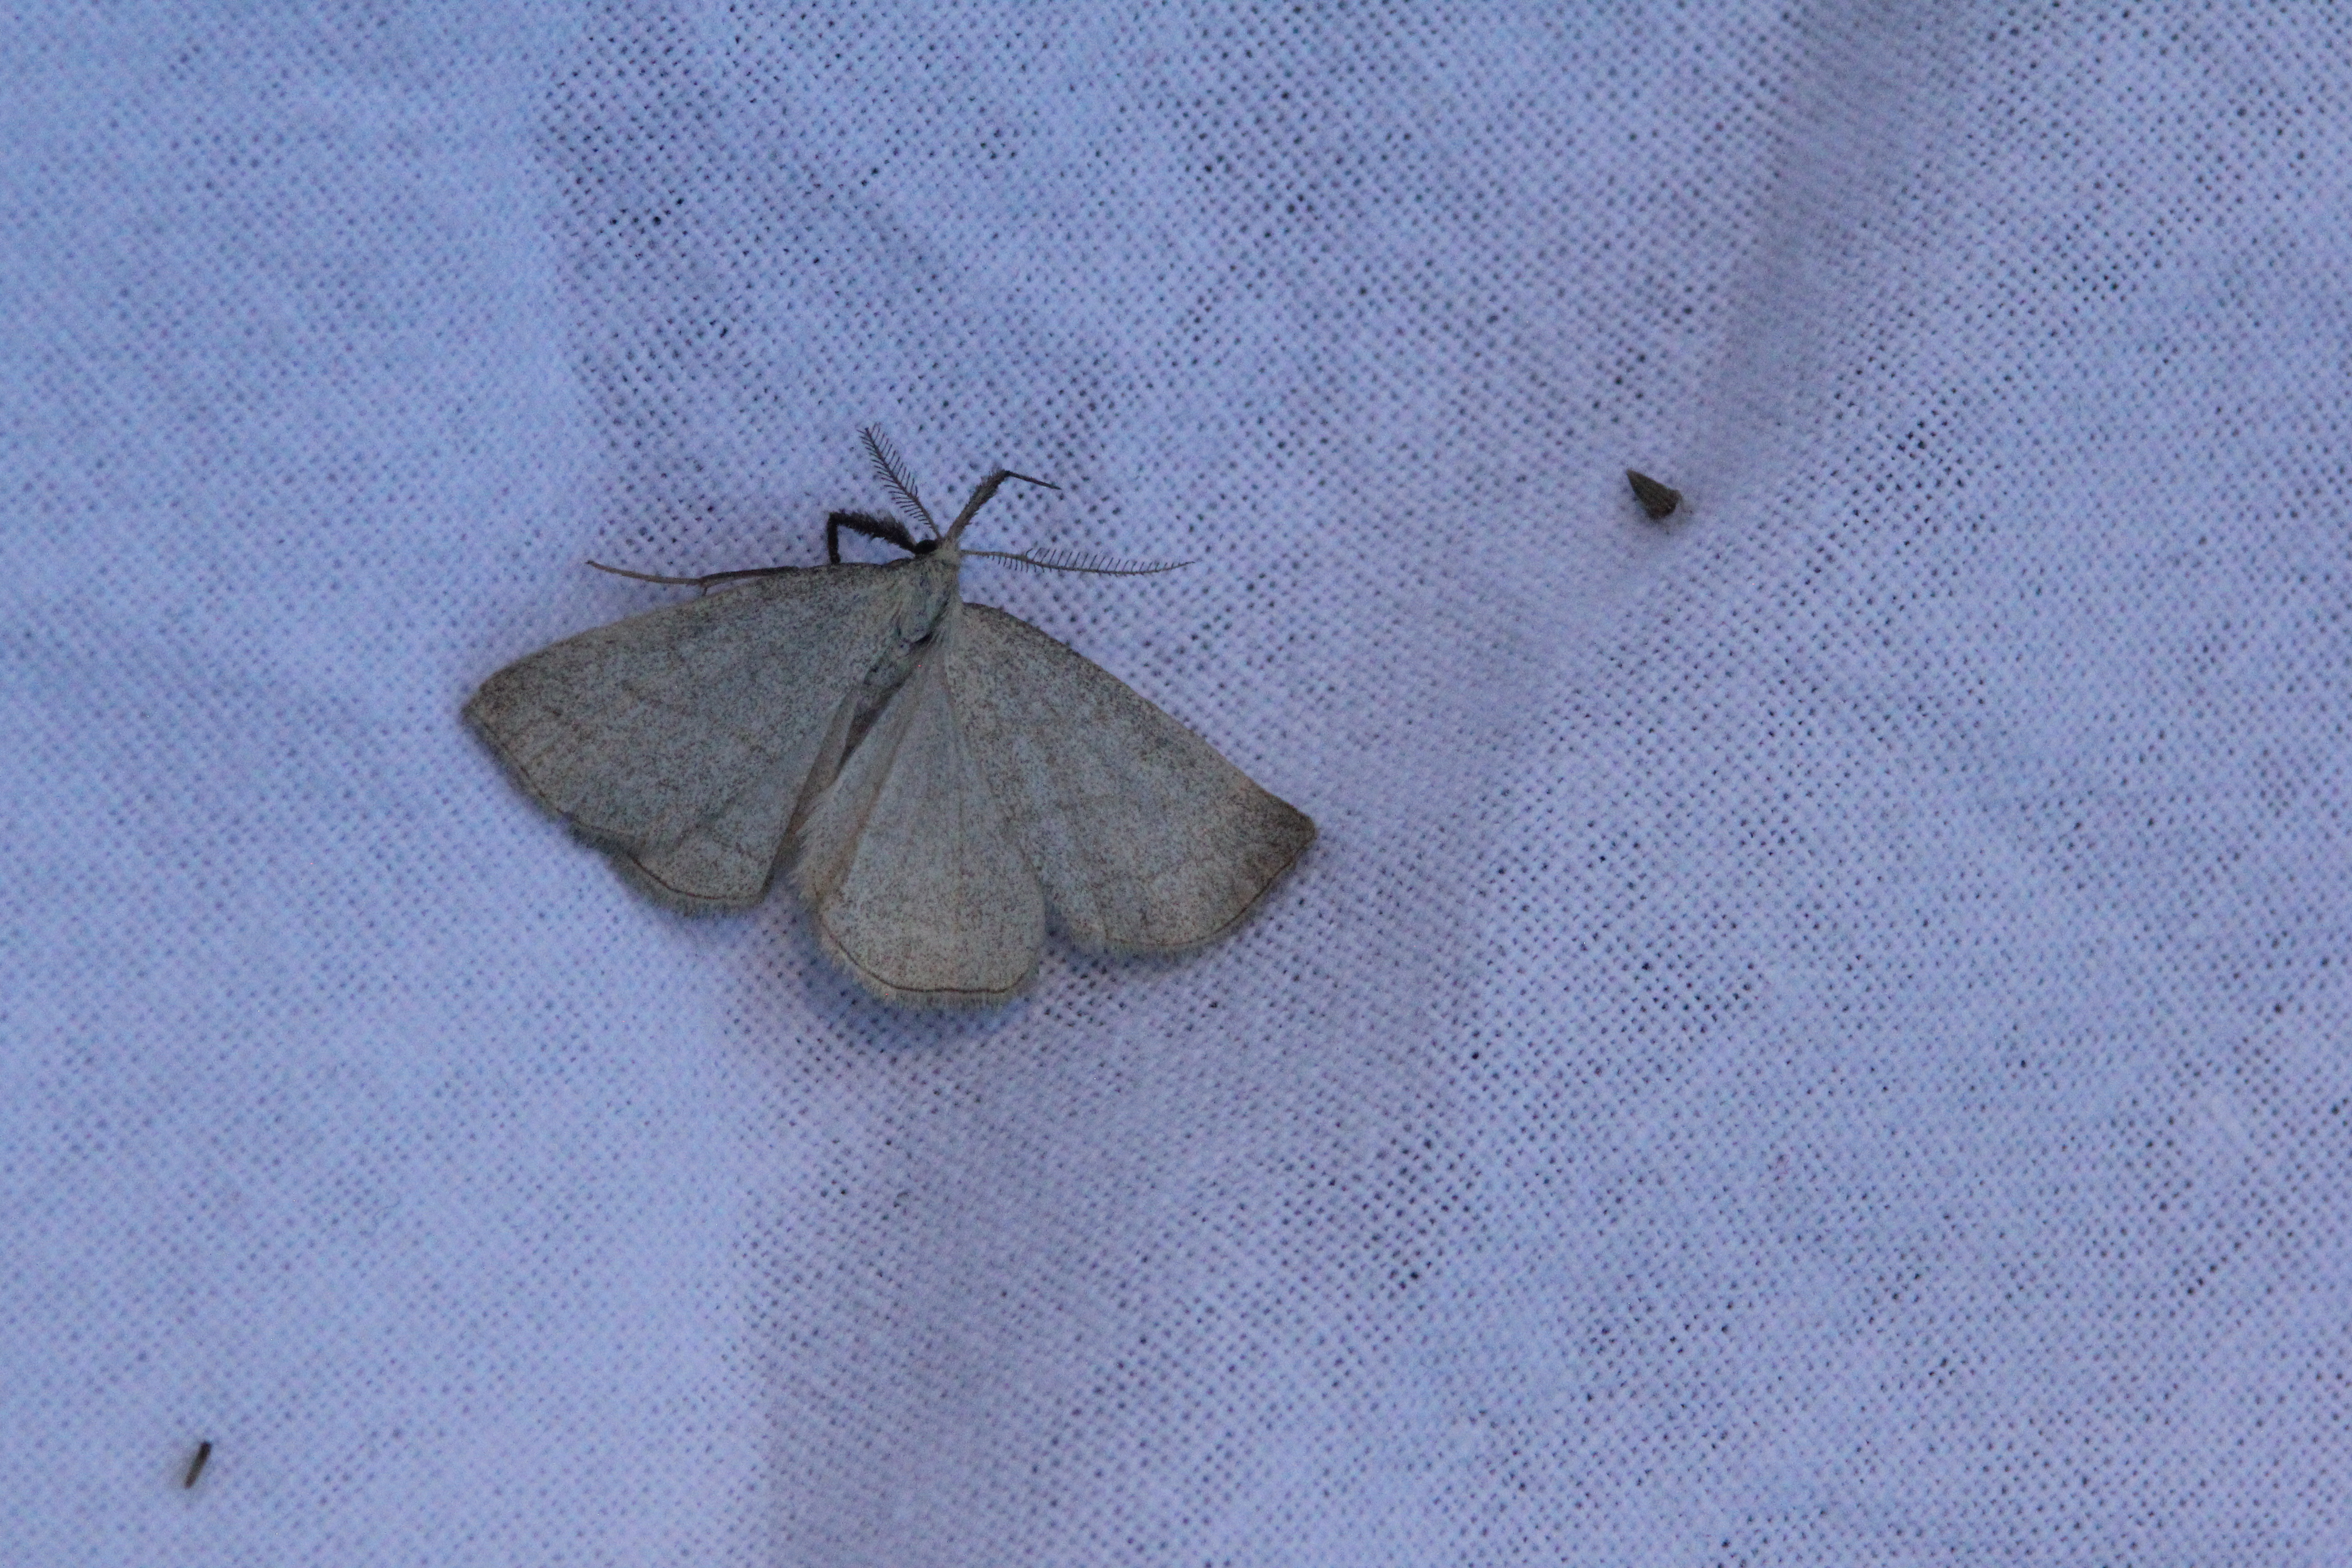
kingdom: Animalia
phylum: Arthropoda
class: Insecta
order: Lepidoptera
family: Erebidae
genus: Polypogon
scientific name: Polypogon tentacularia
